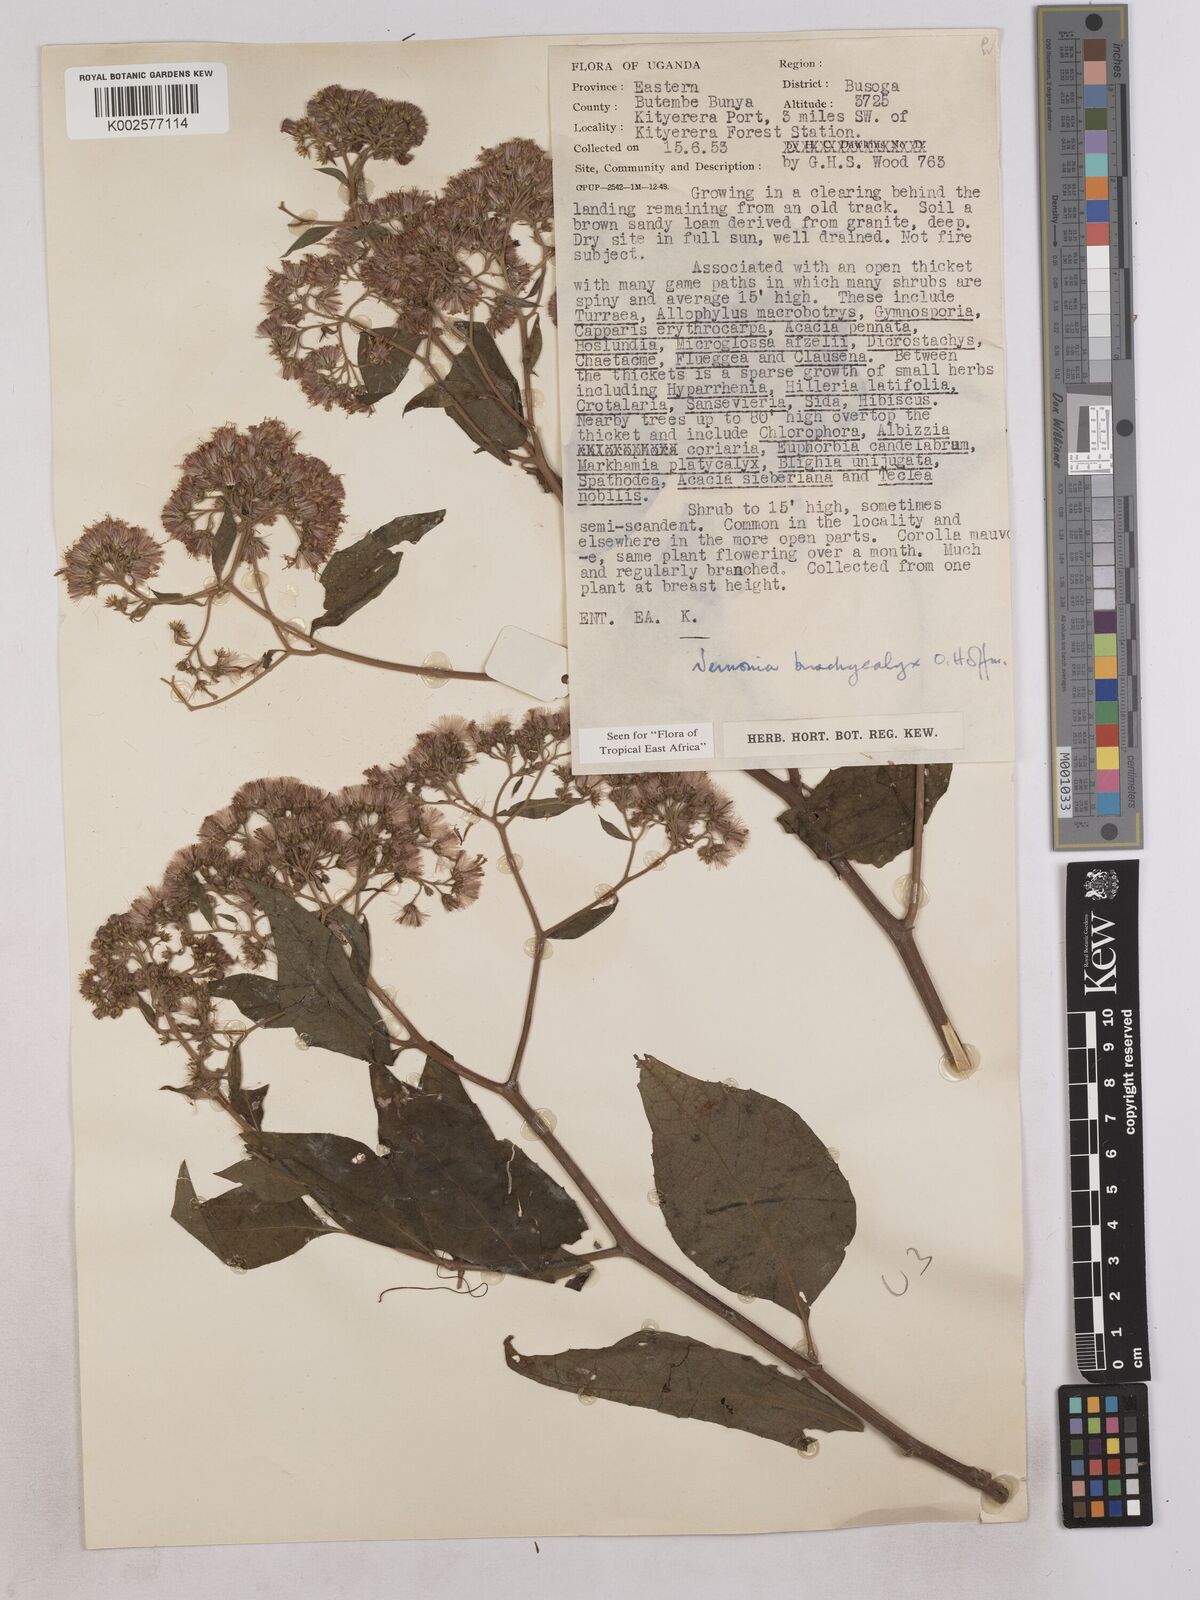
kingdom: Plantae
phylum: Tracheophyta
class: Magnoliopsida
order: Asterales
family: Asteraceae
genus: Hoffmannanthus
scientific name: Hoffmannanthus abbotianus
